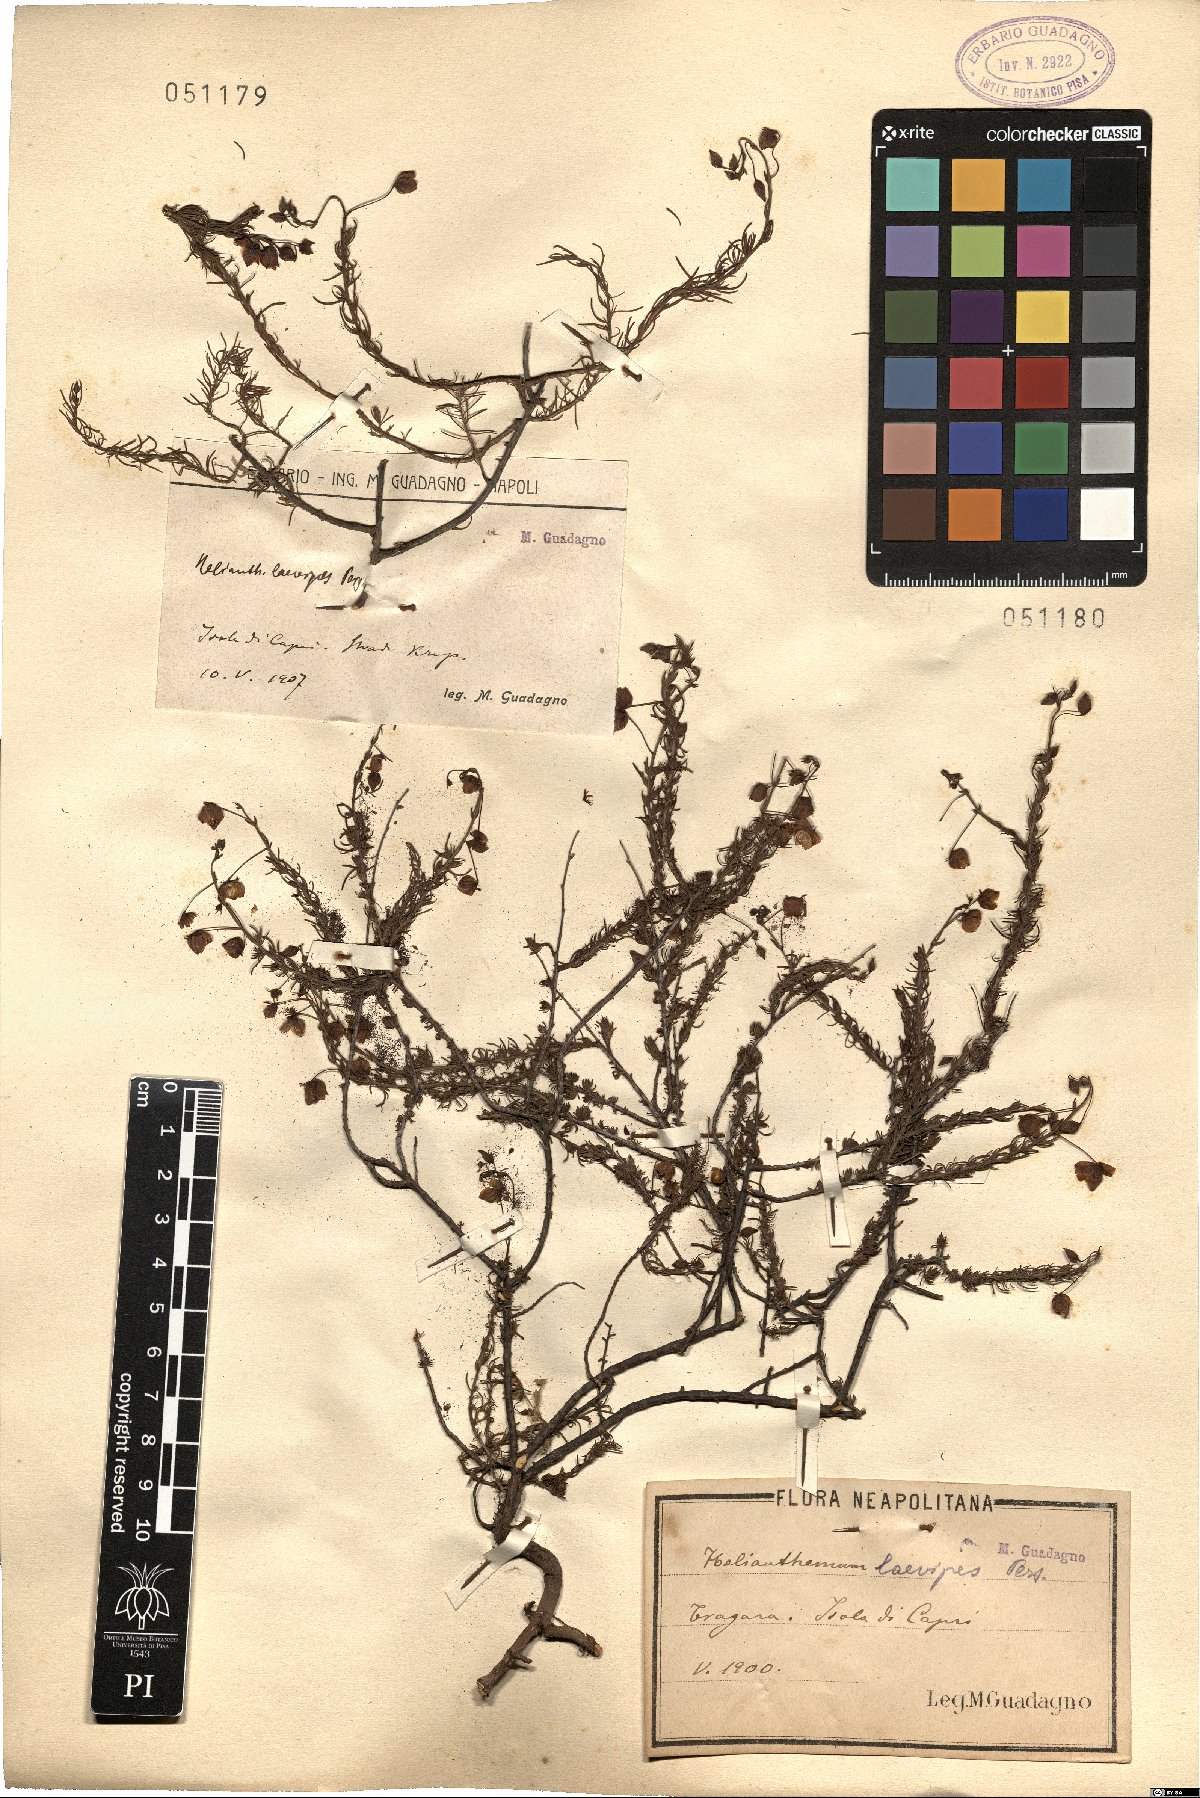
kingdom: Plantae
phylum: Tracheophyta
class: Magnoliopsida
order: Malvales
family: Cistaceae
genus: Fumana
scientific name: Fumana laevipes
